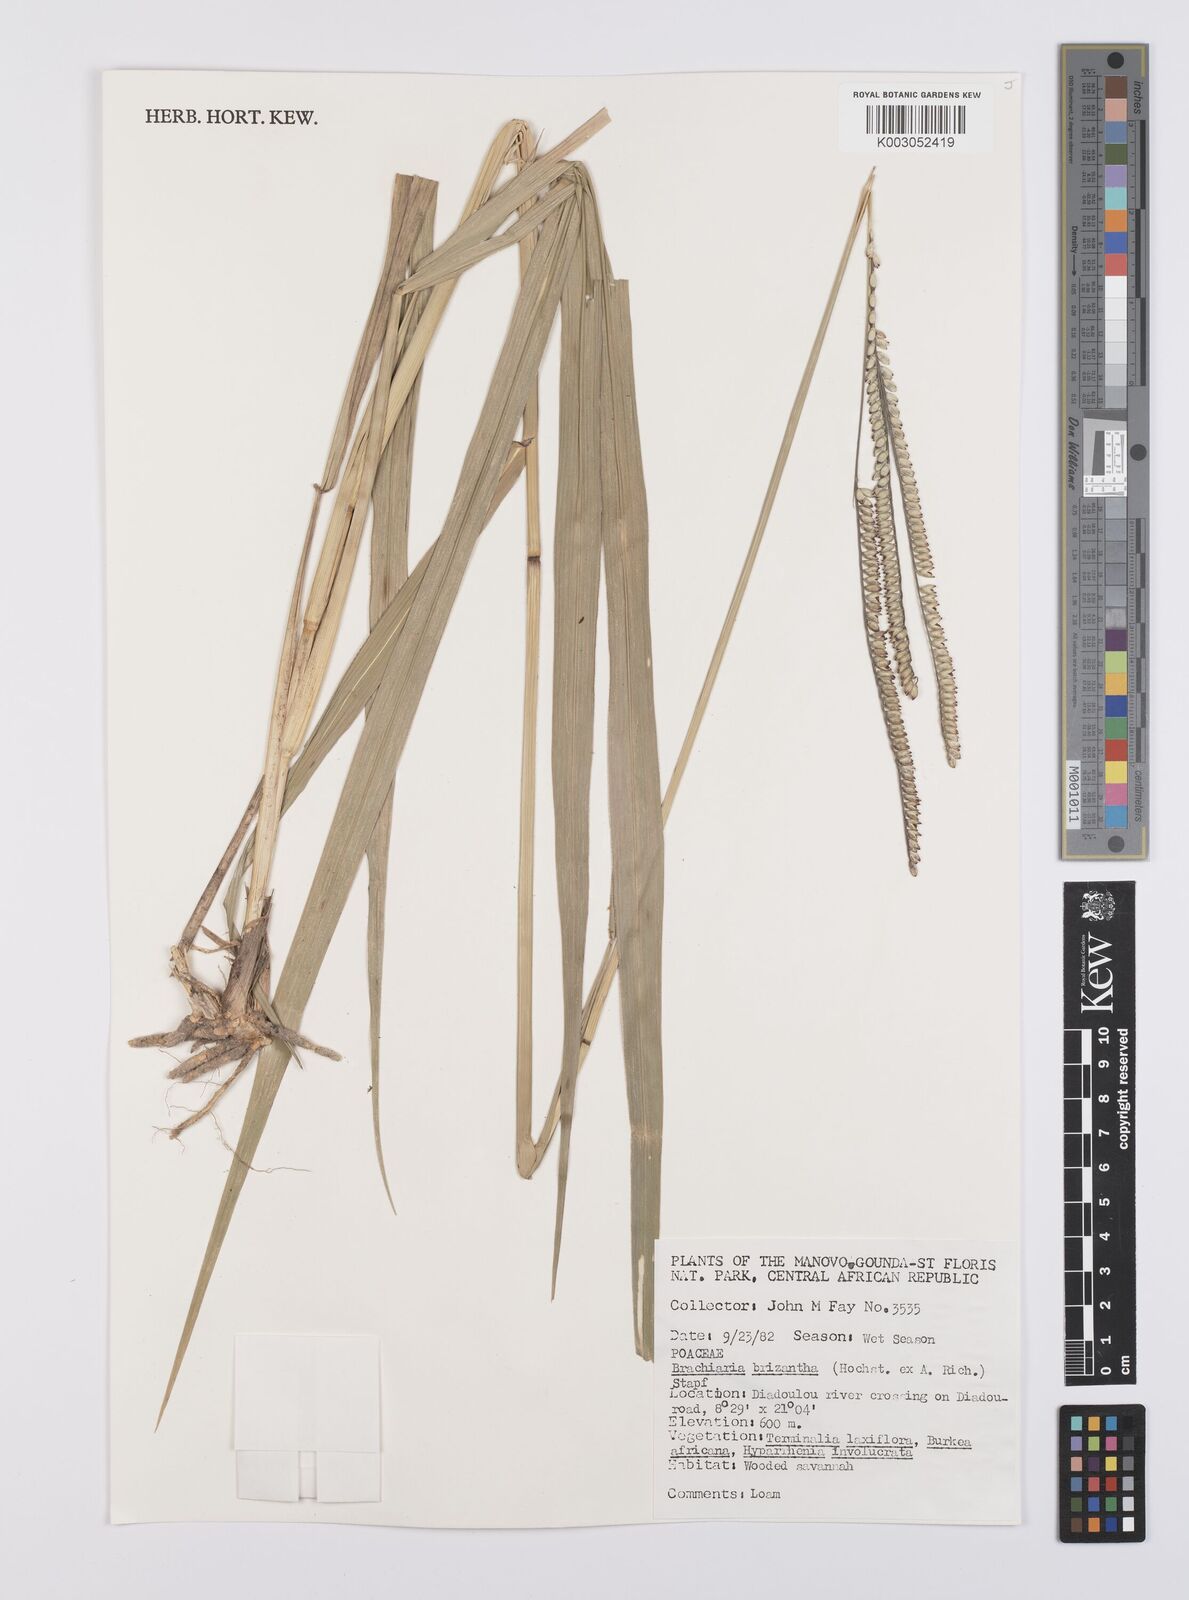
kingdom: Plantae
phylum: Tracheophyta
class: Liliopsida
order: Poales
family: Poaceae
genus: Urochloa
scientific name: Urochloa brizantha
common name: Palisade signalgrass
